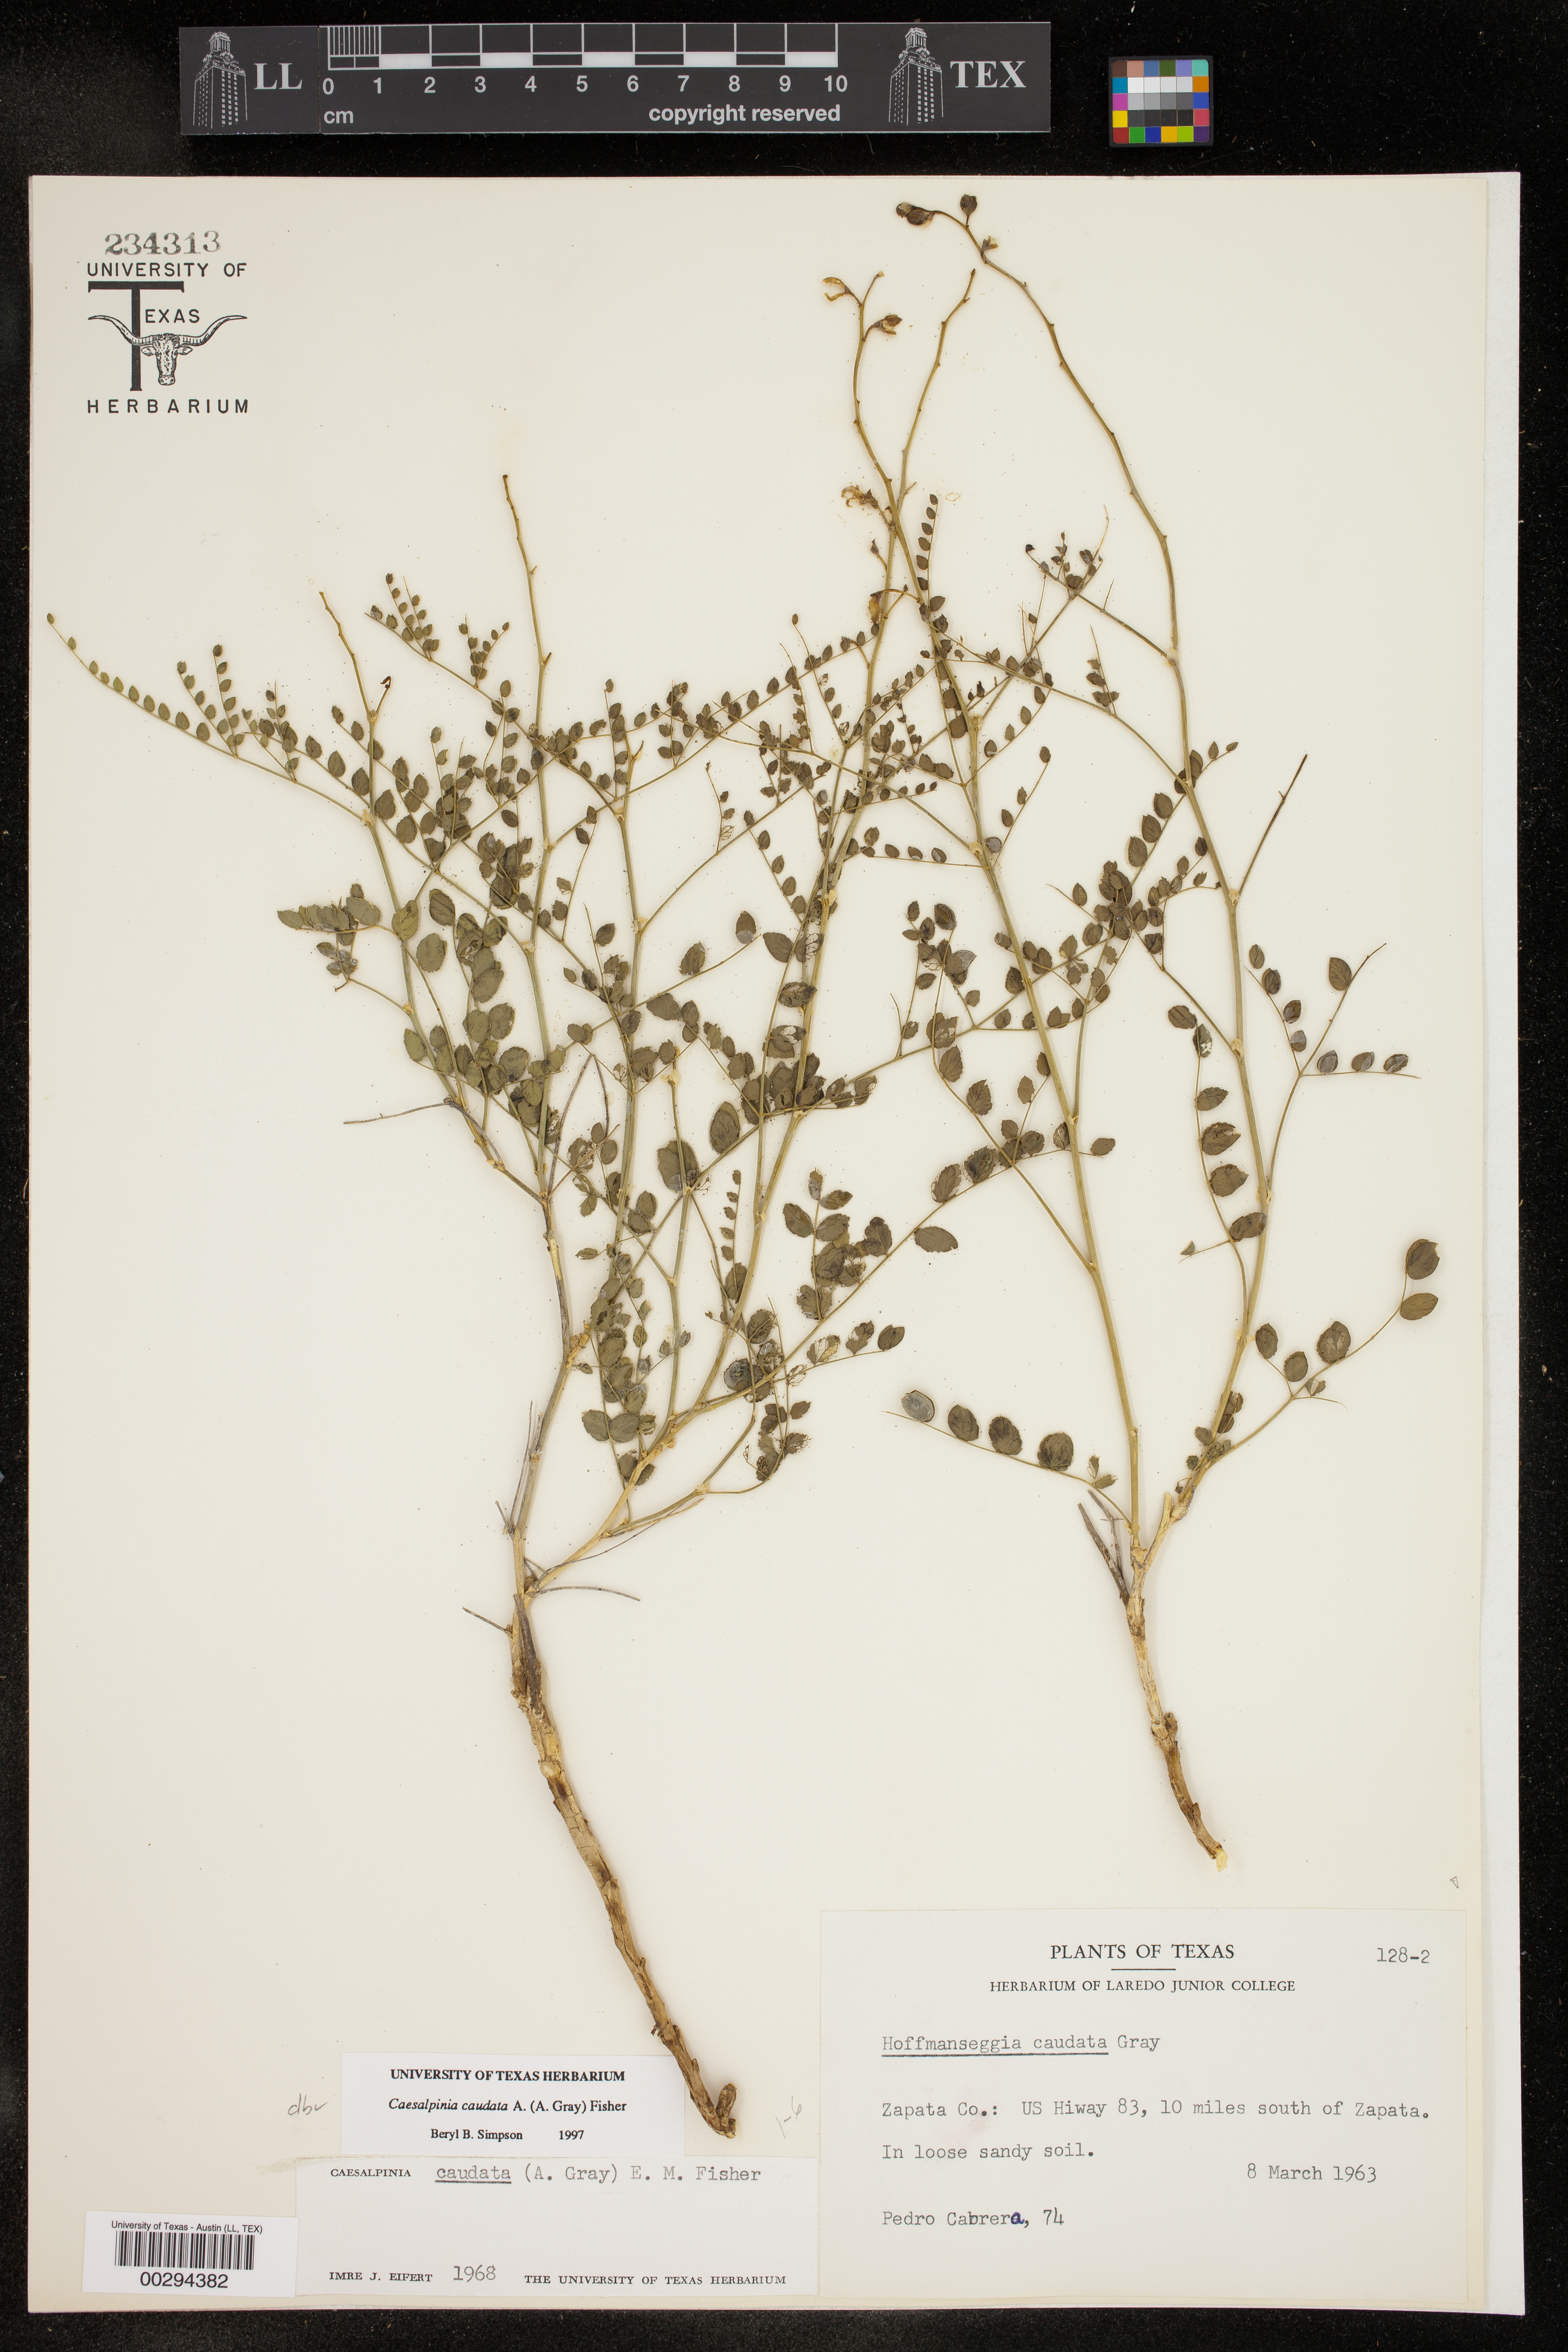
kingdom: Plantae
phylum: Tracheophyta
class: Magnoliopsida
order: Fabales
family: Fabaceae
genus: Erythrostemon
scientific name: Erythrostemon caudatus
